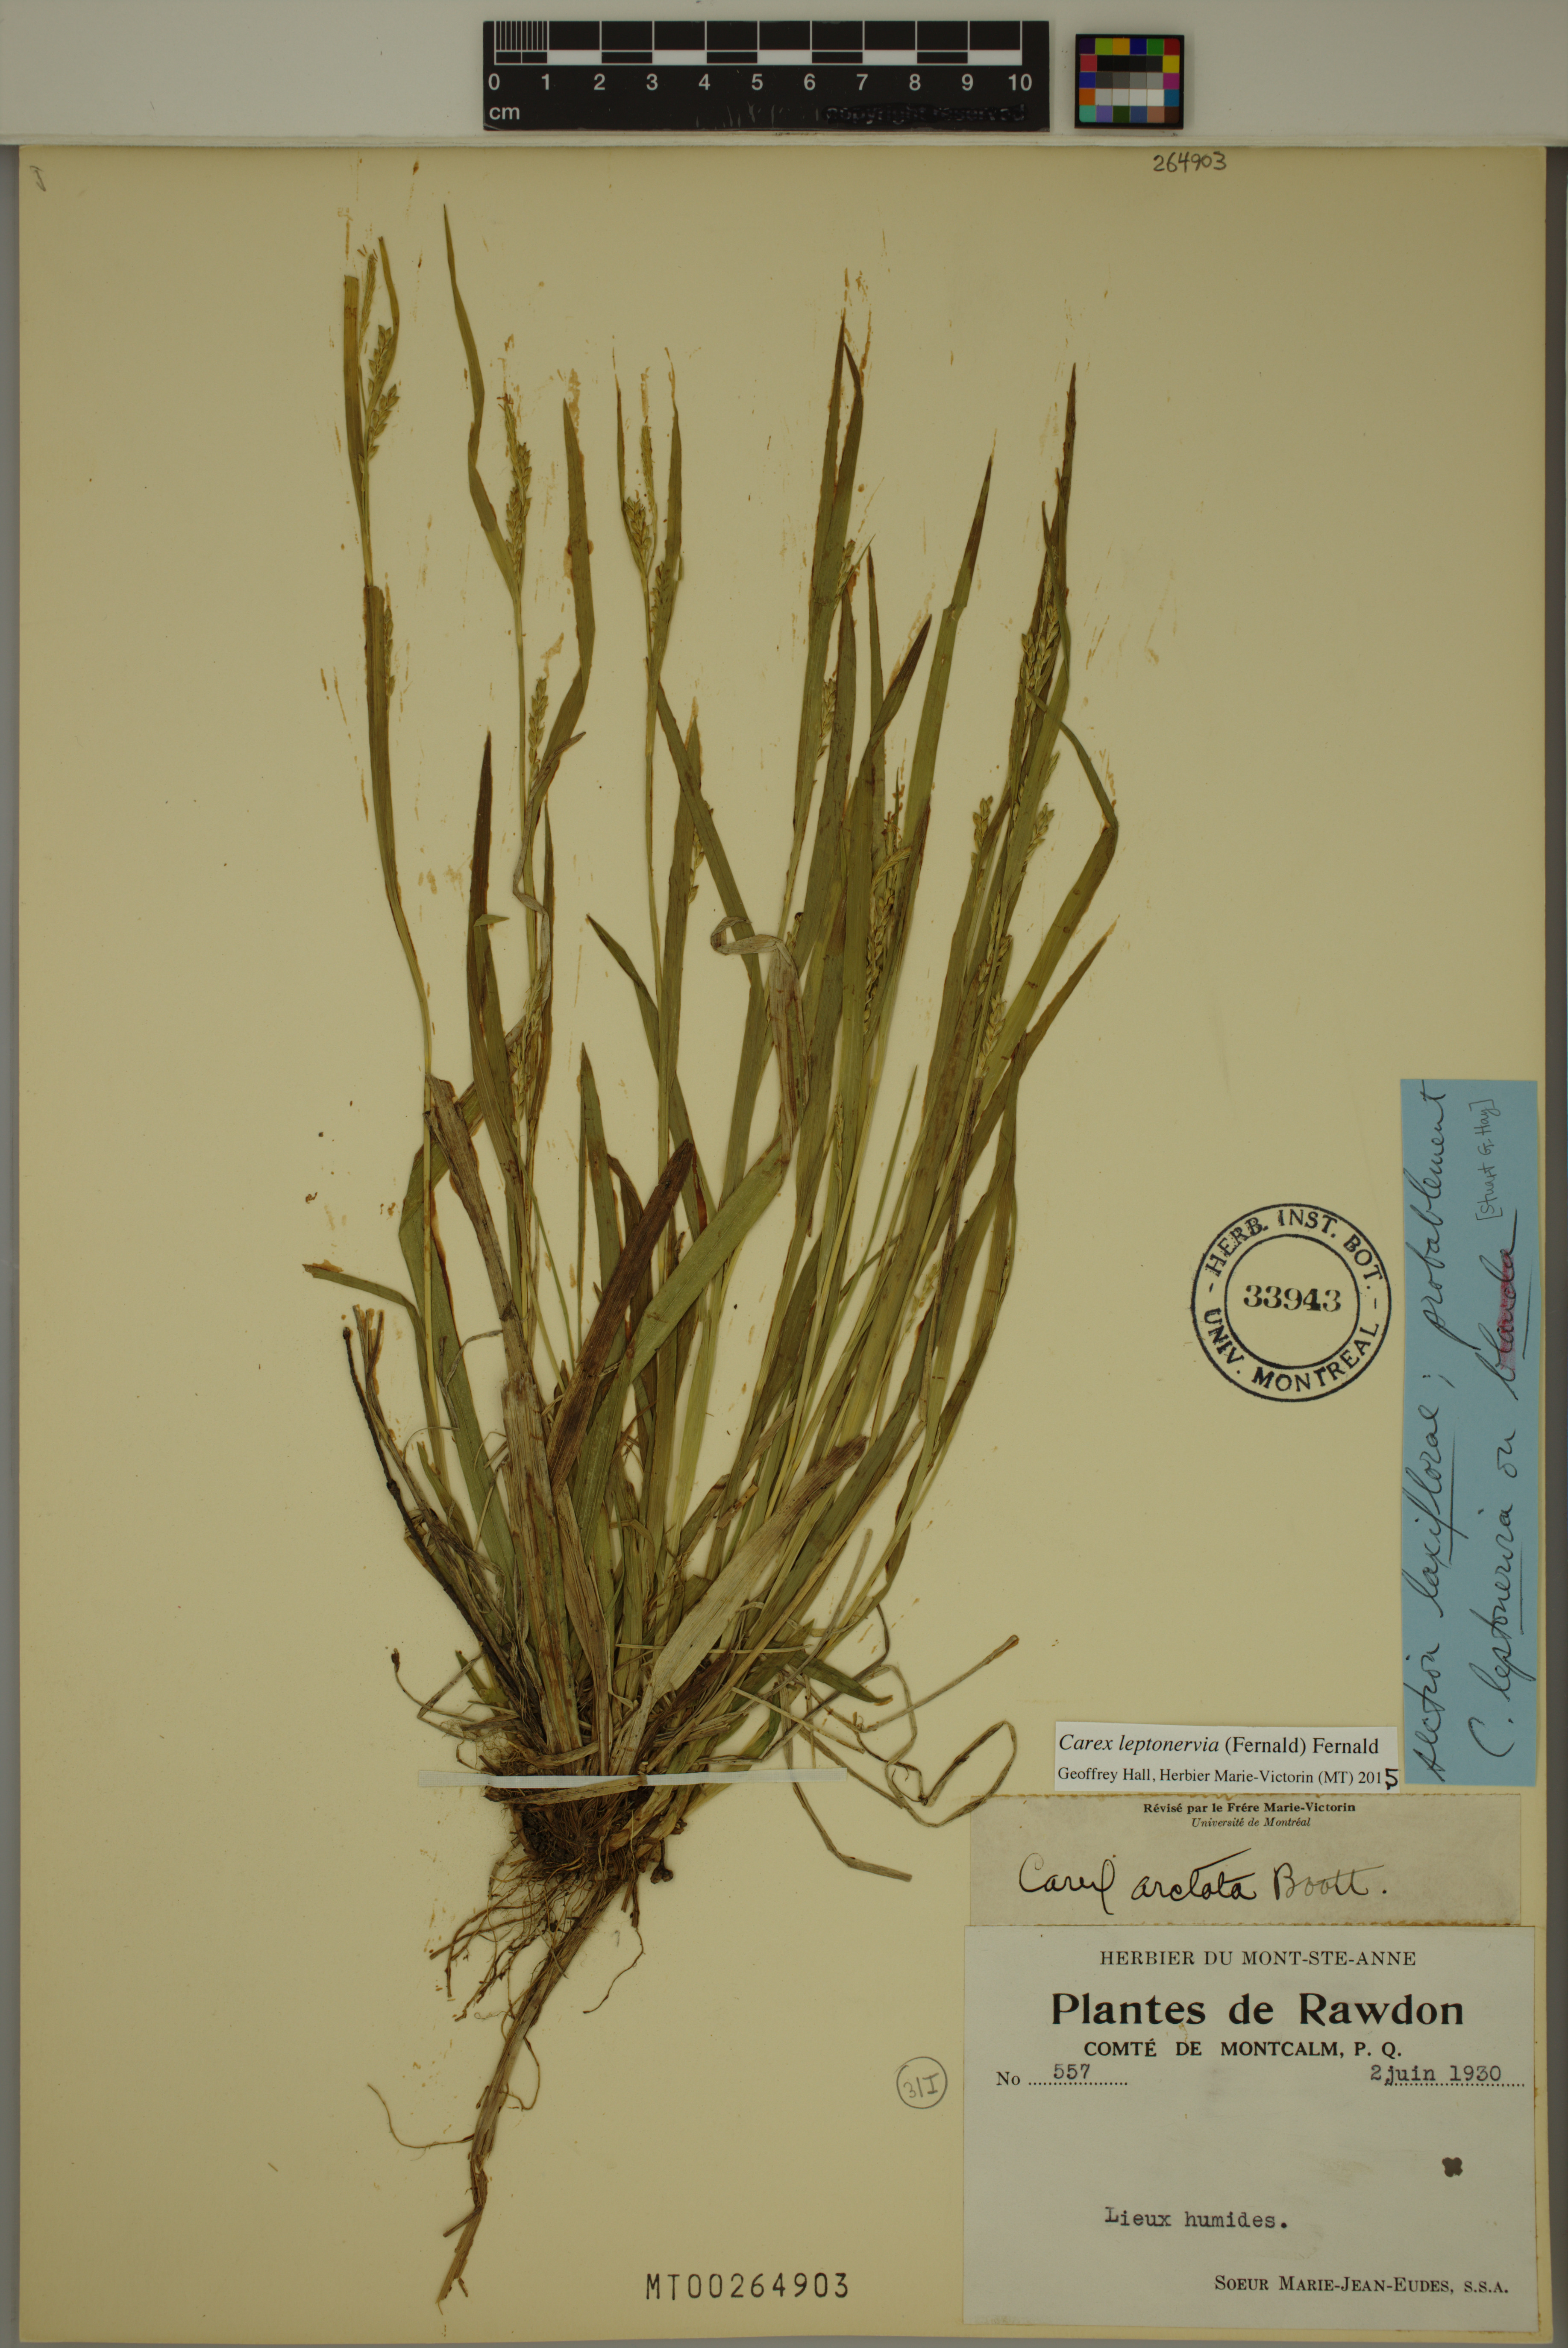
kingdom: Plantae
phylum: Tracheophyta
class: Liliopsida
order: Poales
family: Cyperaceae
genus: Carex
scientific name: Carex leptonervia
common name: Few-nerved wood sedge
